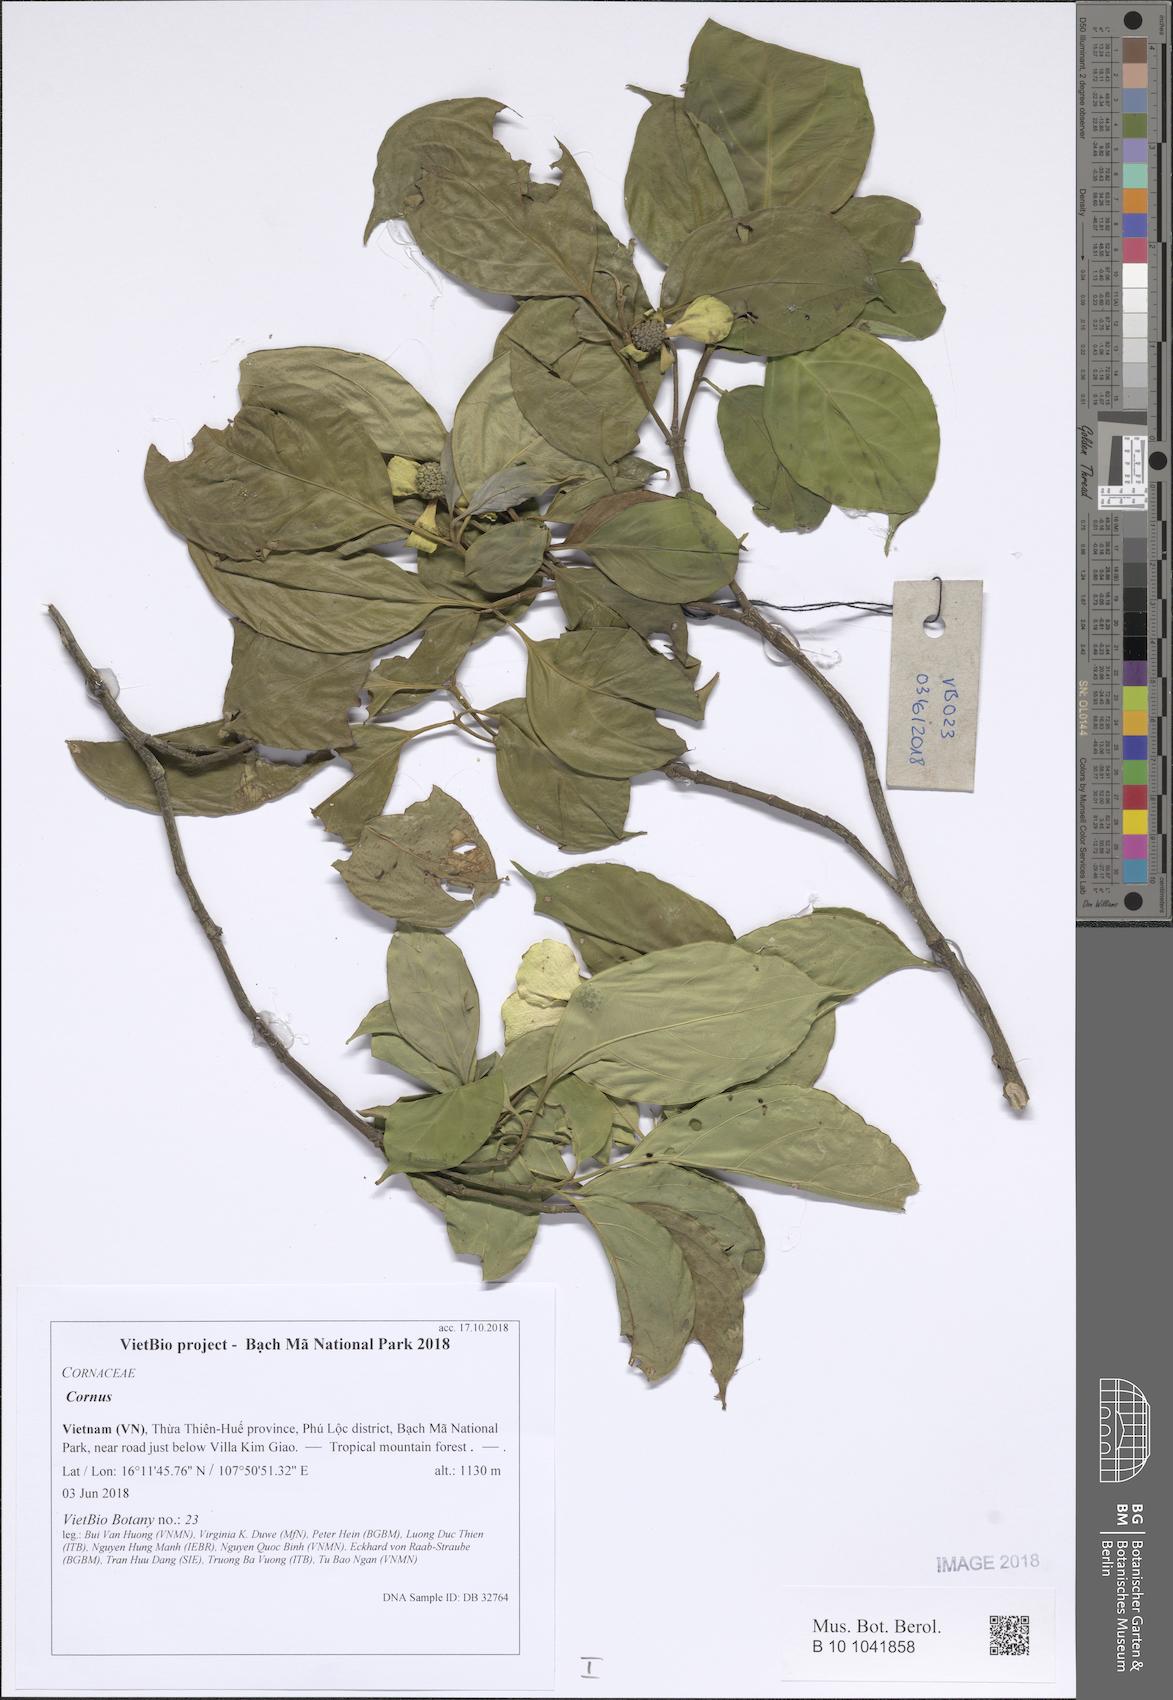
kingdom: Plantae
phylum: Tracheophyta
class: Magnoliopsida
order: Cornales
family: Cornaceae
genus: Cornus
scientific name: Cornus
